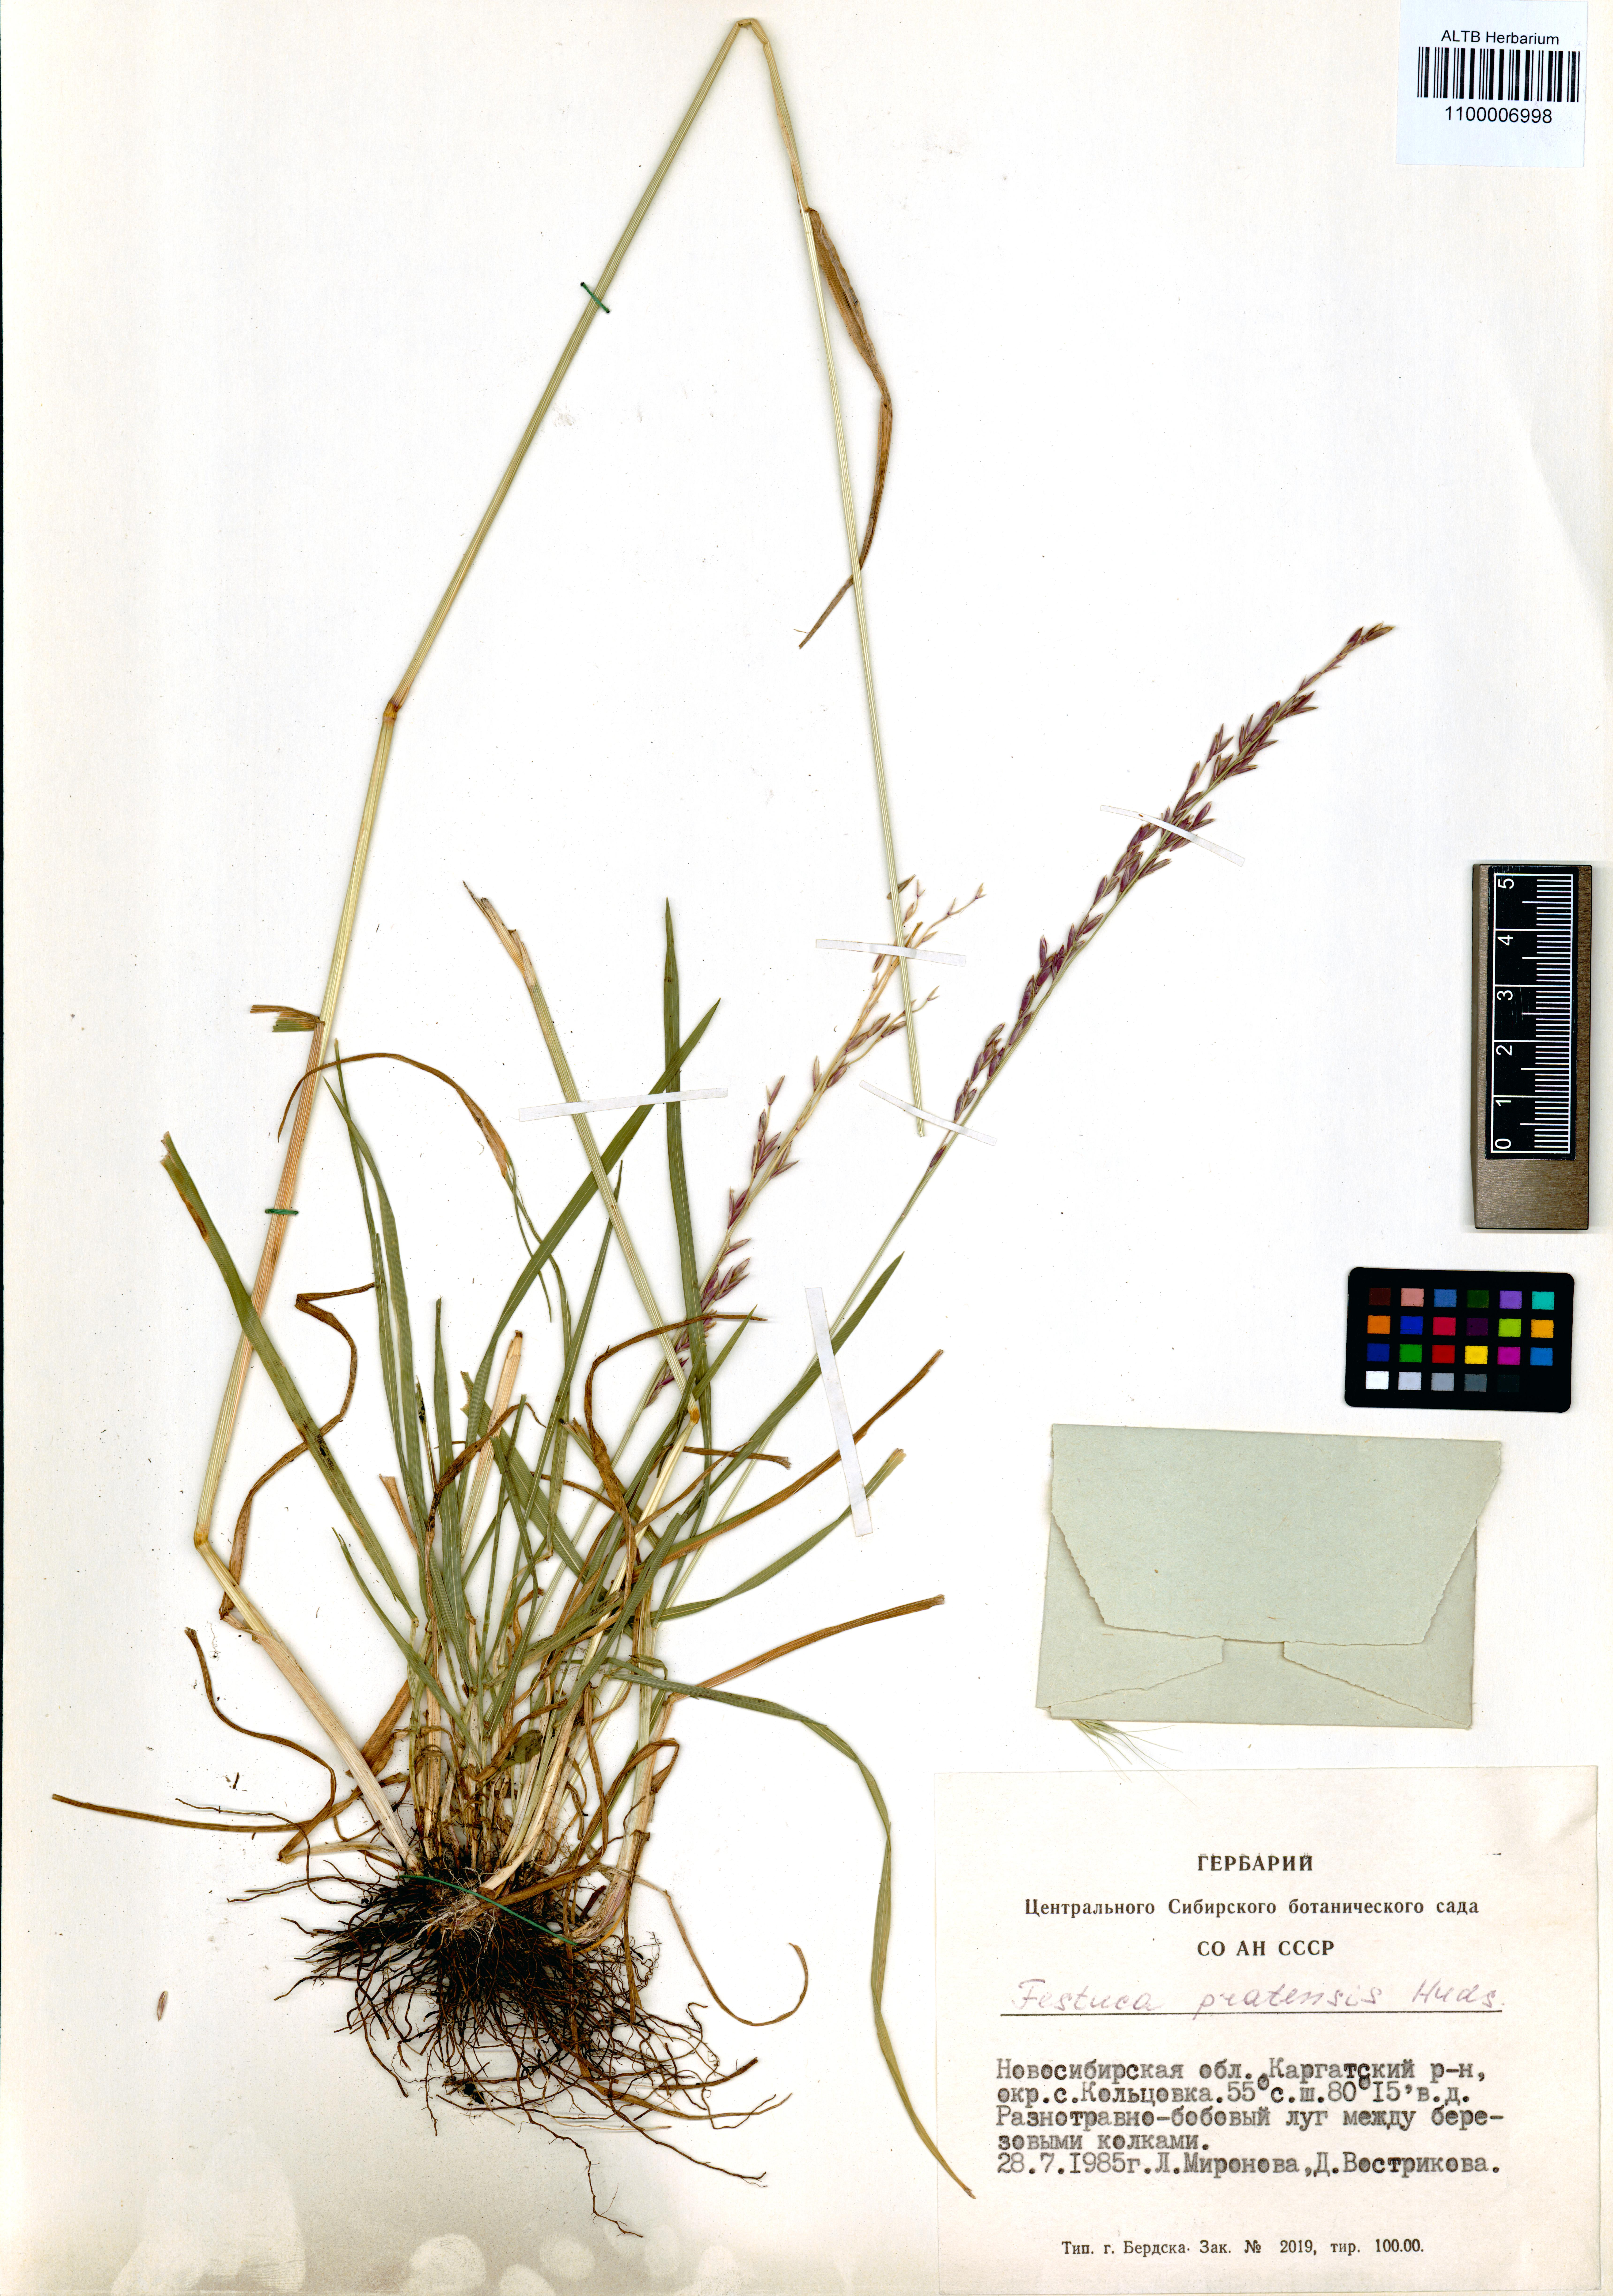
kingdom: Plantae
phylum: Tracheophyta
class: Liliopsida
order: Poales
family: Poaceae
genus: Lolium
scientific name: Lolium pratense
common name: Dover grass
